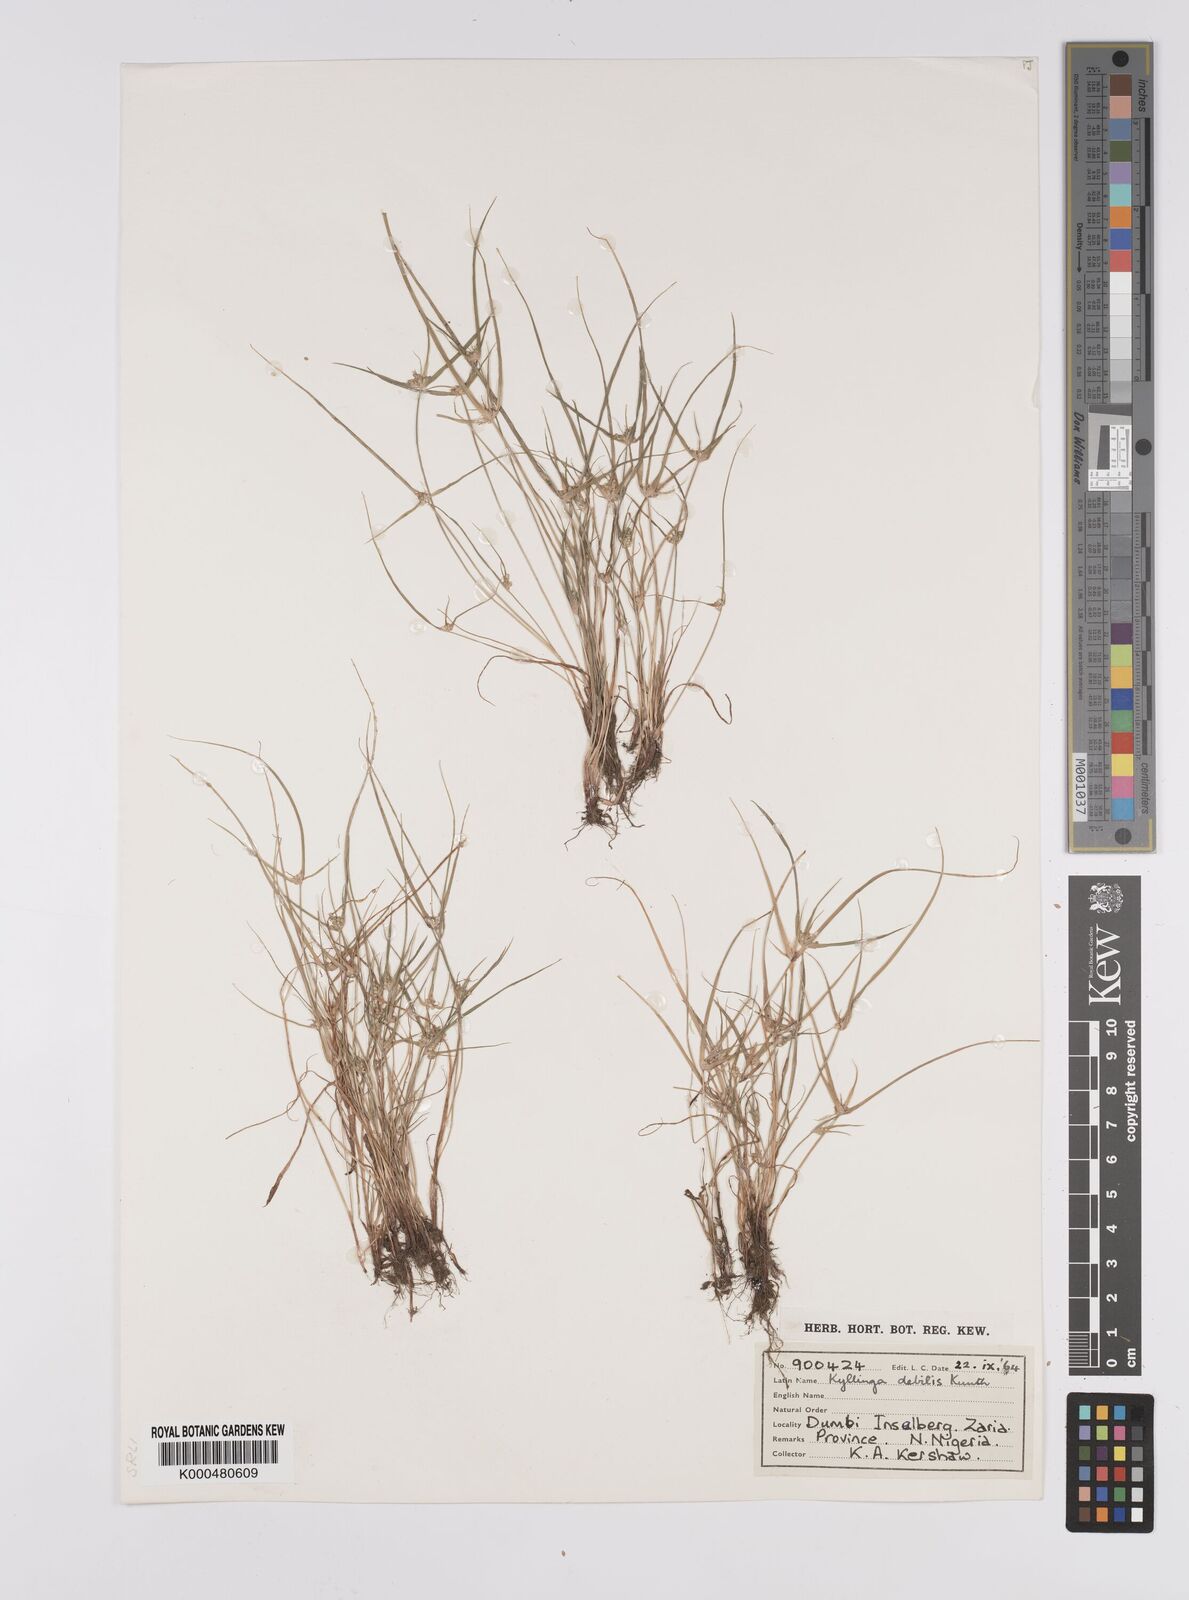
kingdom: Plantae
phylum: Tracheophyta
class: Liliopsida
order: Poales
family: Cyperaceae
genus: Cyperus
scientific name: Cyperus leptorhachis
